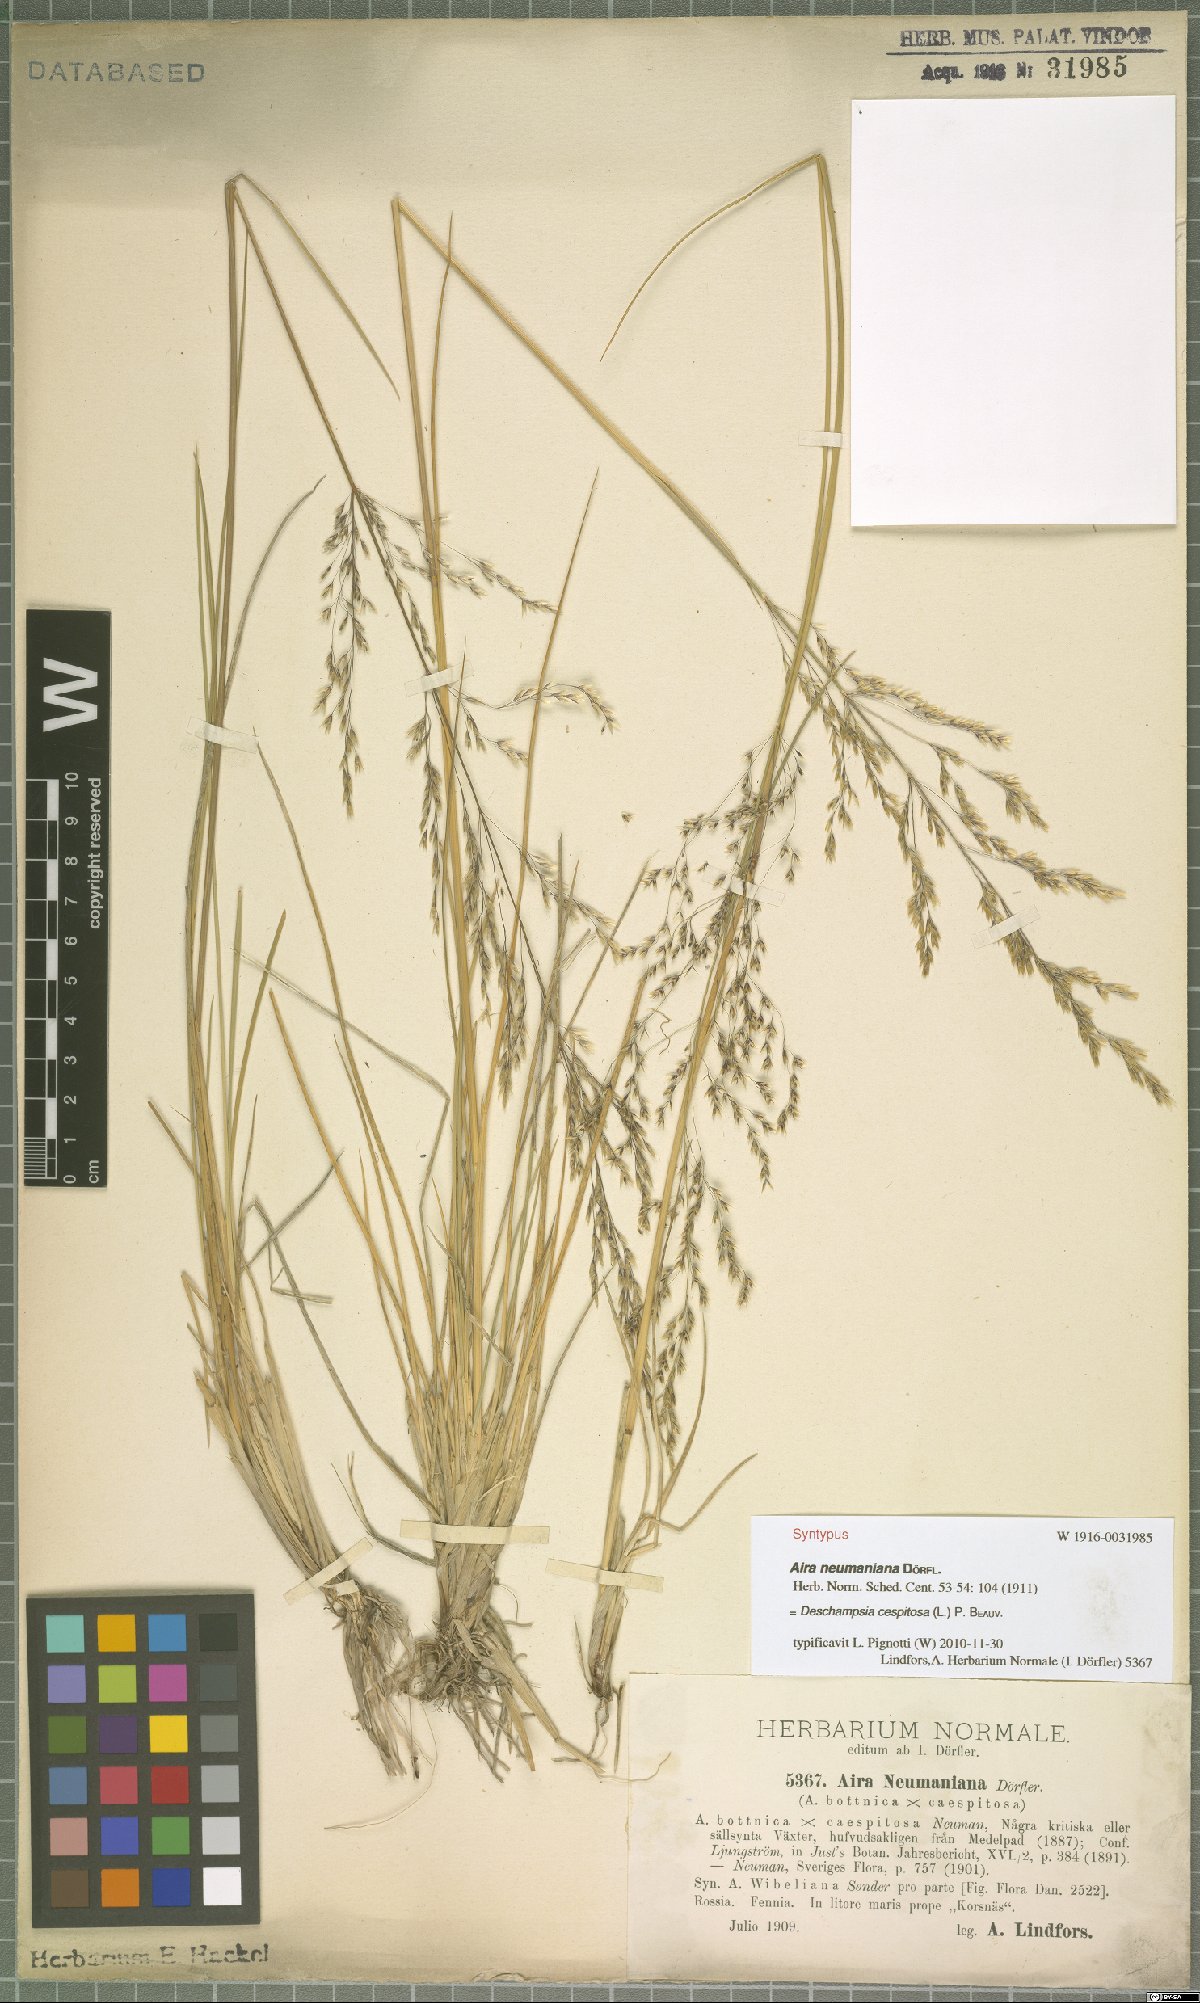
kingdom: Plantae
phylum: Tracheophyta
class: Liliopsida
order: Poales
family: Poaceae
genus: Deschampsia
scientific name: Deschampsia cespitosa
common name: Tufted hair-grass
